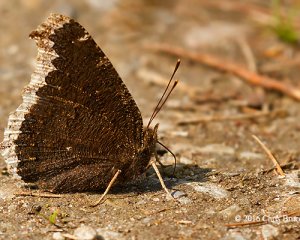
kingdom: Animalia
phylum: Arthropoda
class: Insecta
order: Lepidoptera
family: Nymphalidae
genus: Nymphalis
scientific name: Nymphalis antiopa
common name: Mourning Cloak
